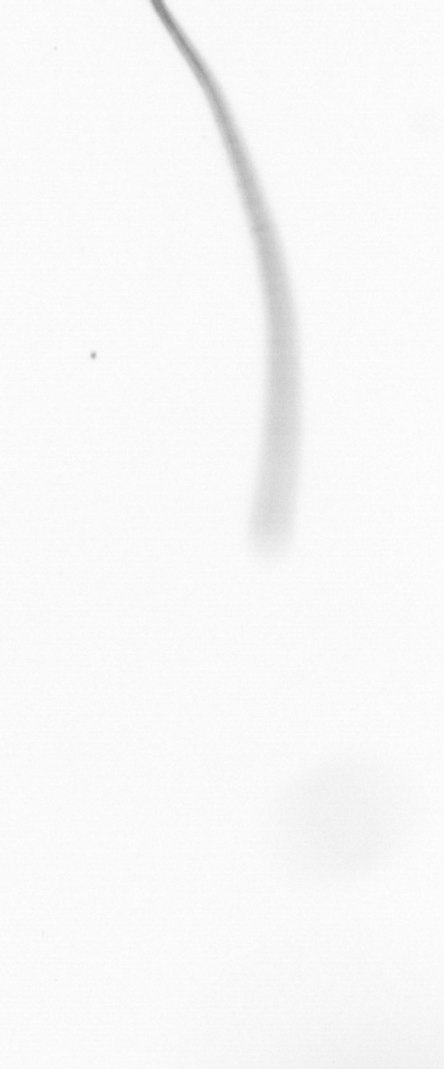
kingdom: Chromista
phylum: Ochrophyta
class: Bacillariophyceae
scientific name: Bacillariophyceae
